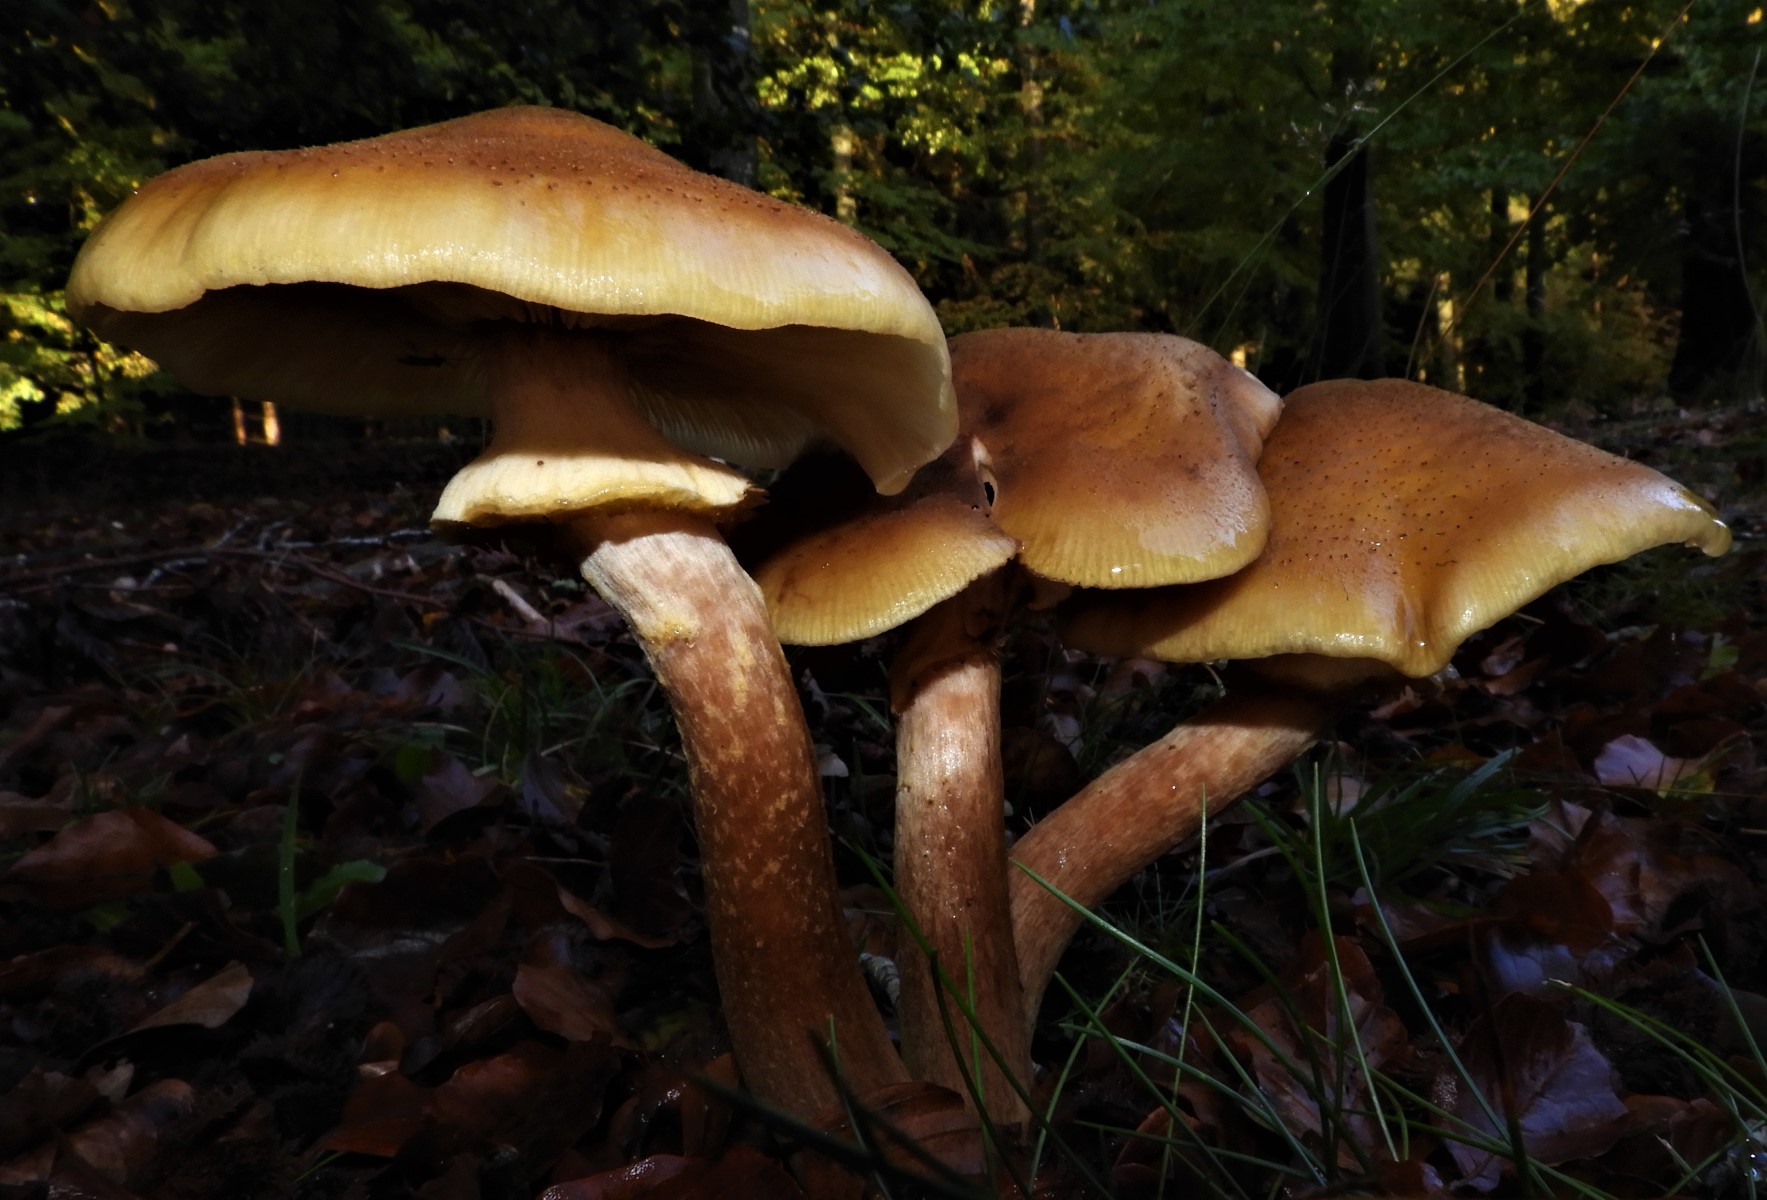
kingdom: Fungi
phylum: Basidiomycota
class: Agaricomycetes
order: Agaricales
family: Physalacriaceae
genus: Armillaria
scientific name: Armillaria mellea
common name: ægte honningsvamp
